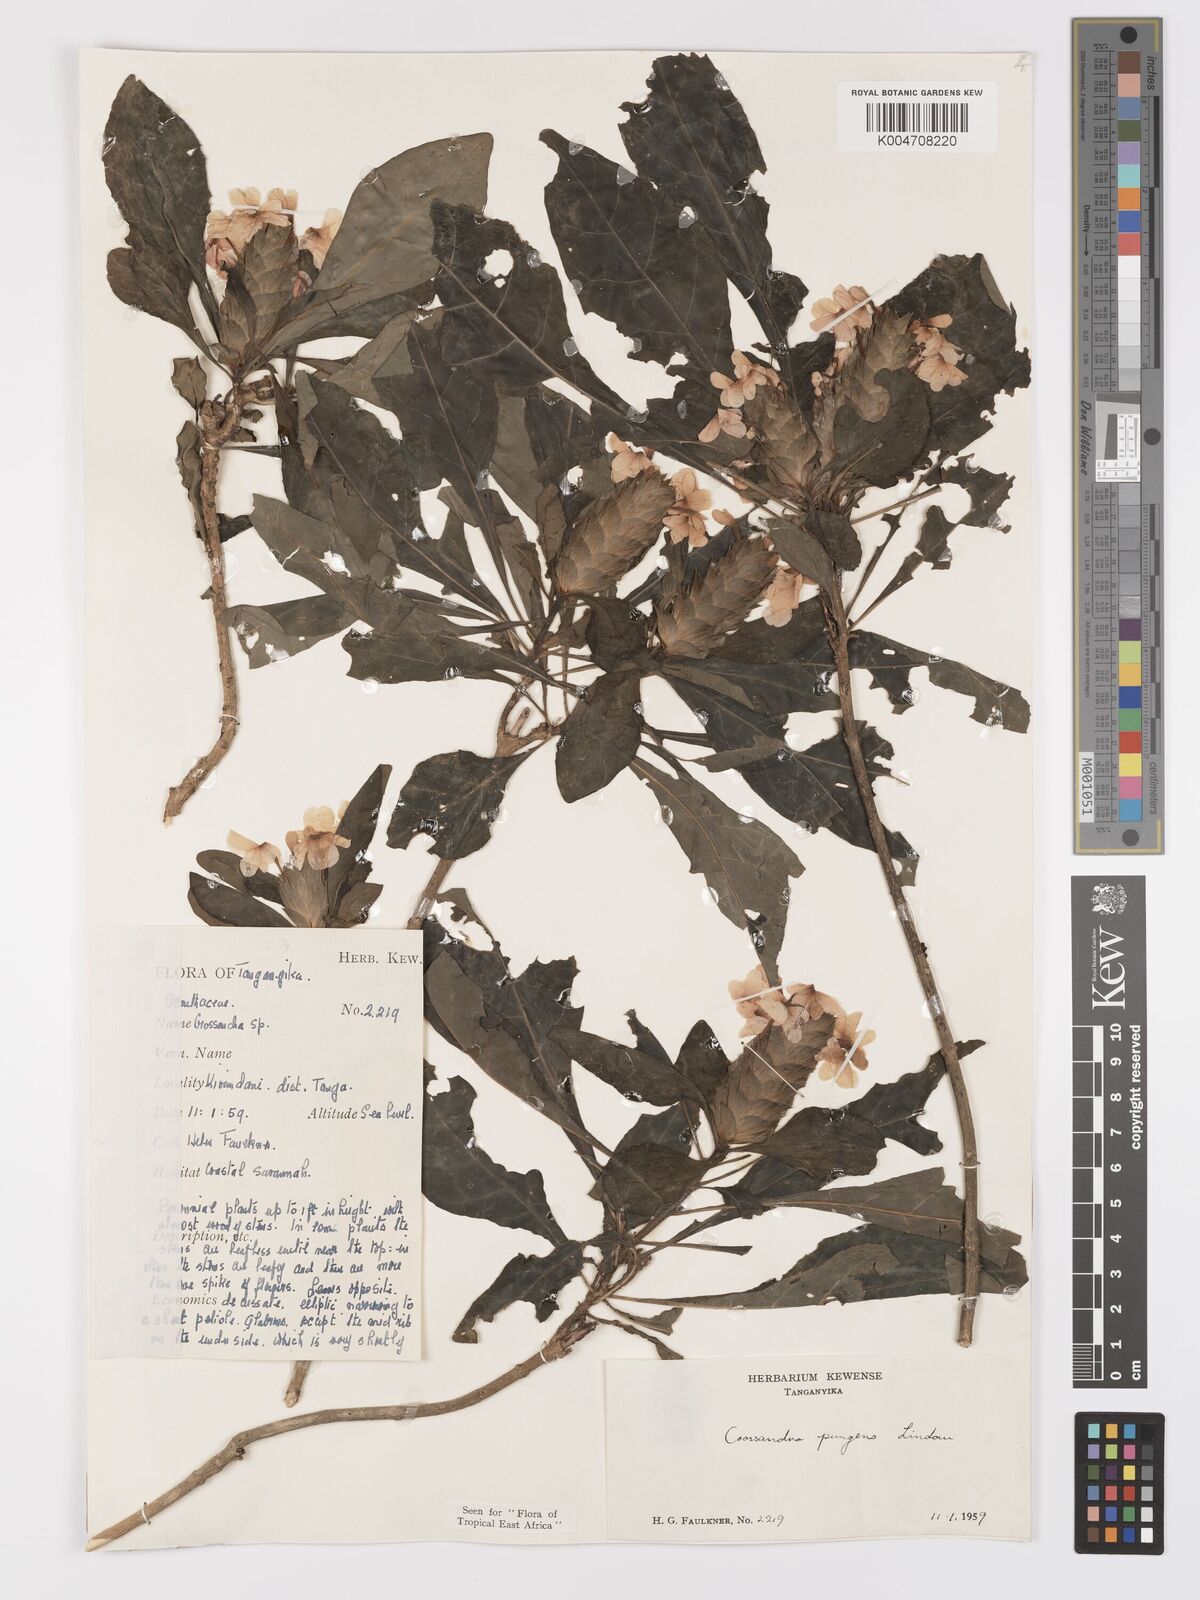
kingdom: Plantae
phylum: Tracheophyta
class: Magnoliopsida
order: Lamiales
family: Acanthaceae
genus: Crossandra
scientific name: Crossandra pungens
